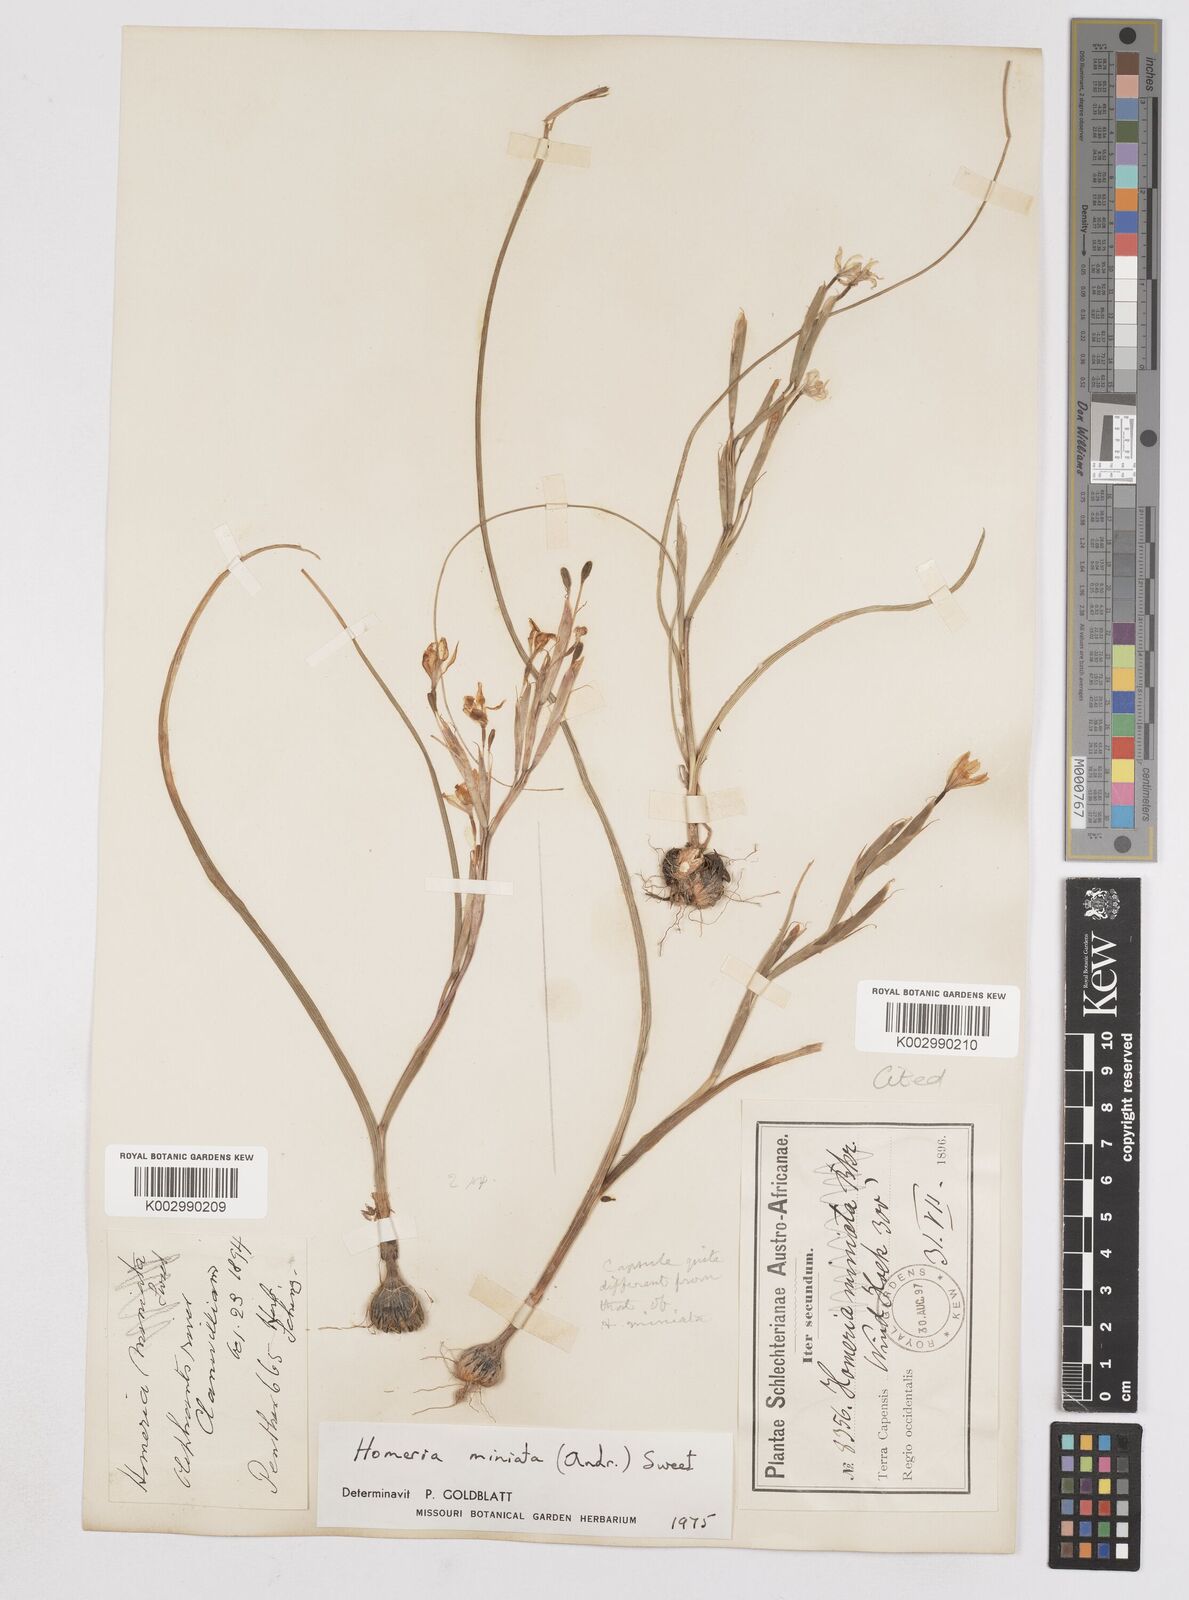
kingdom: Plantae
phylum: Tracheophyta
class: Liliopsida
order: Asparagales
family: Iridaceae
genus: Moraea
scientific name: Moraea miniata
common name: Two-leaf cape-tulip
